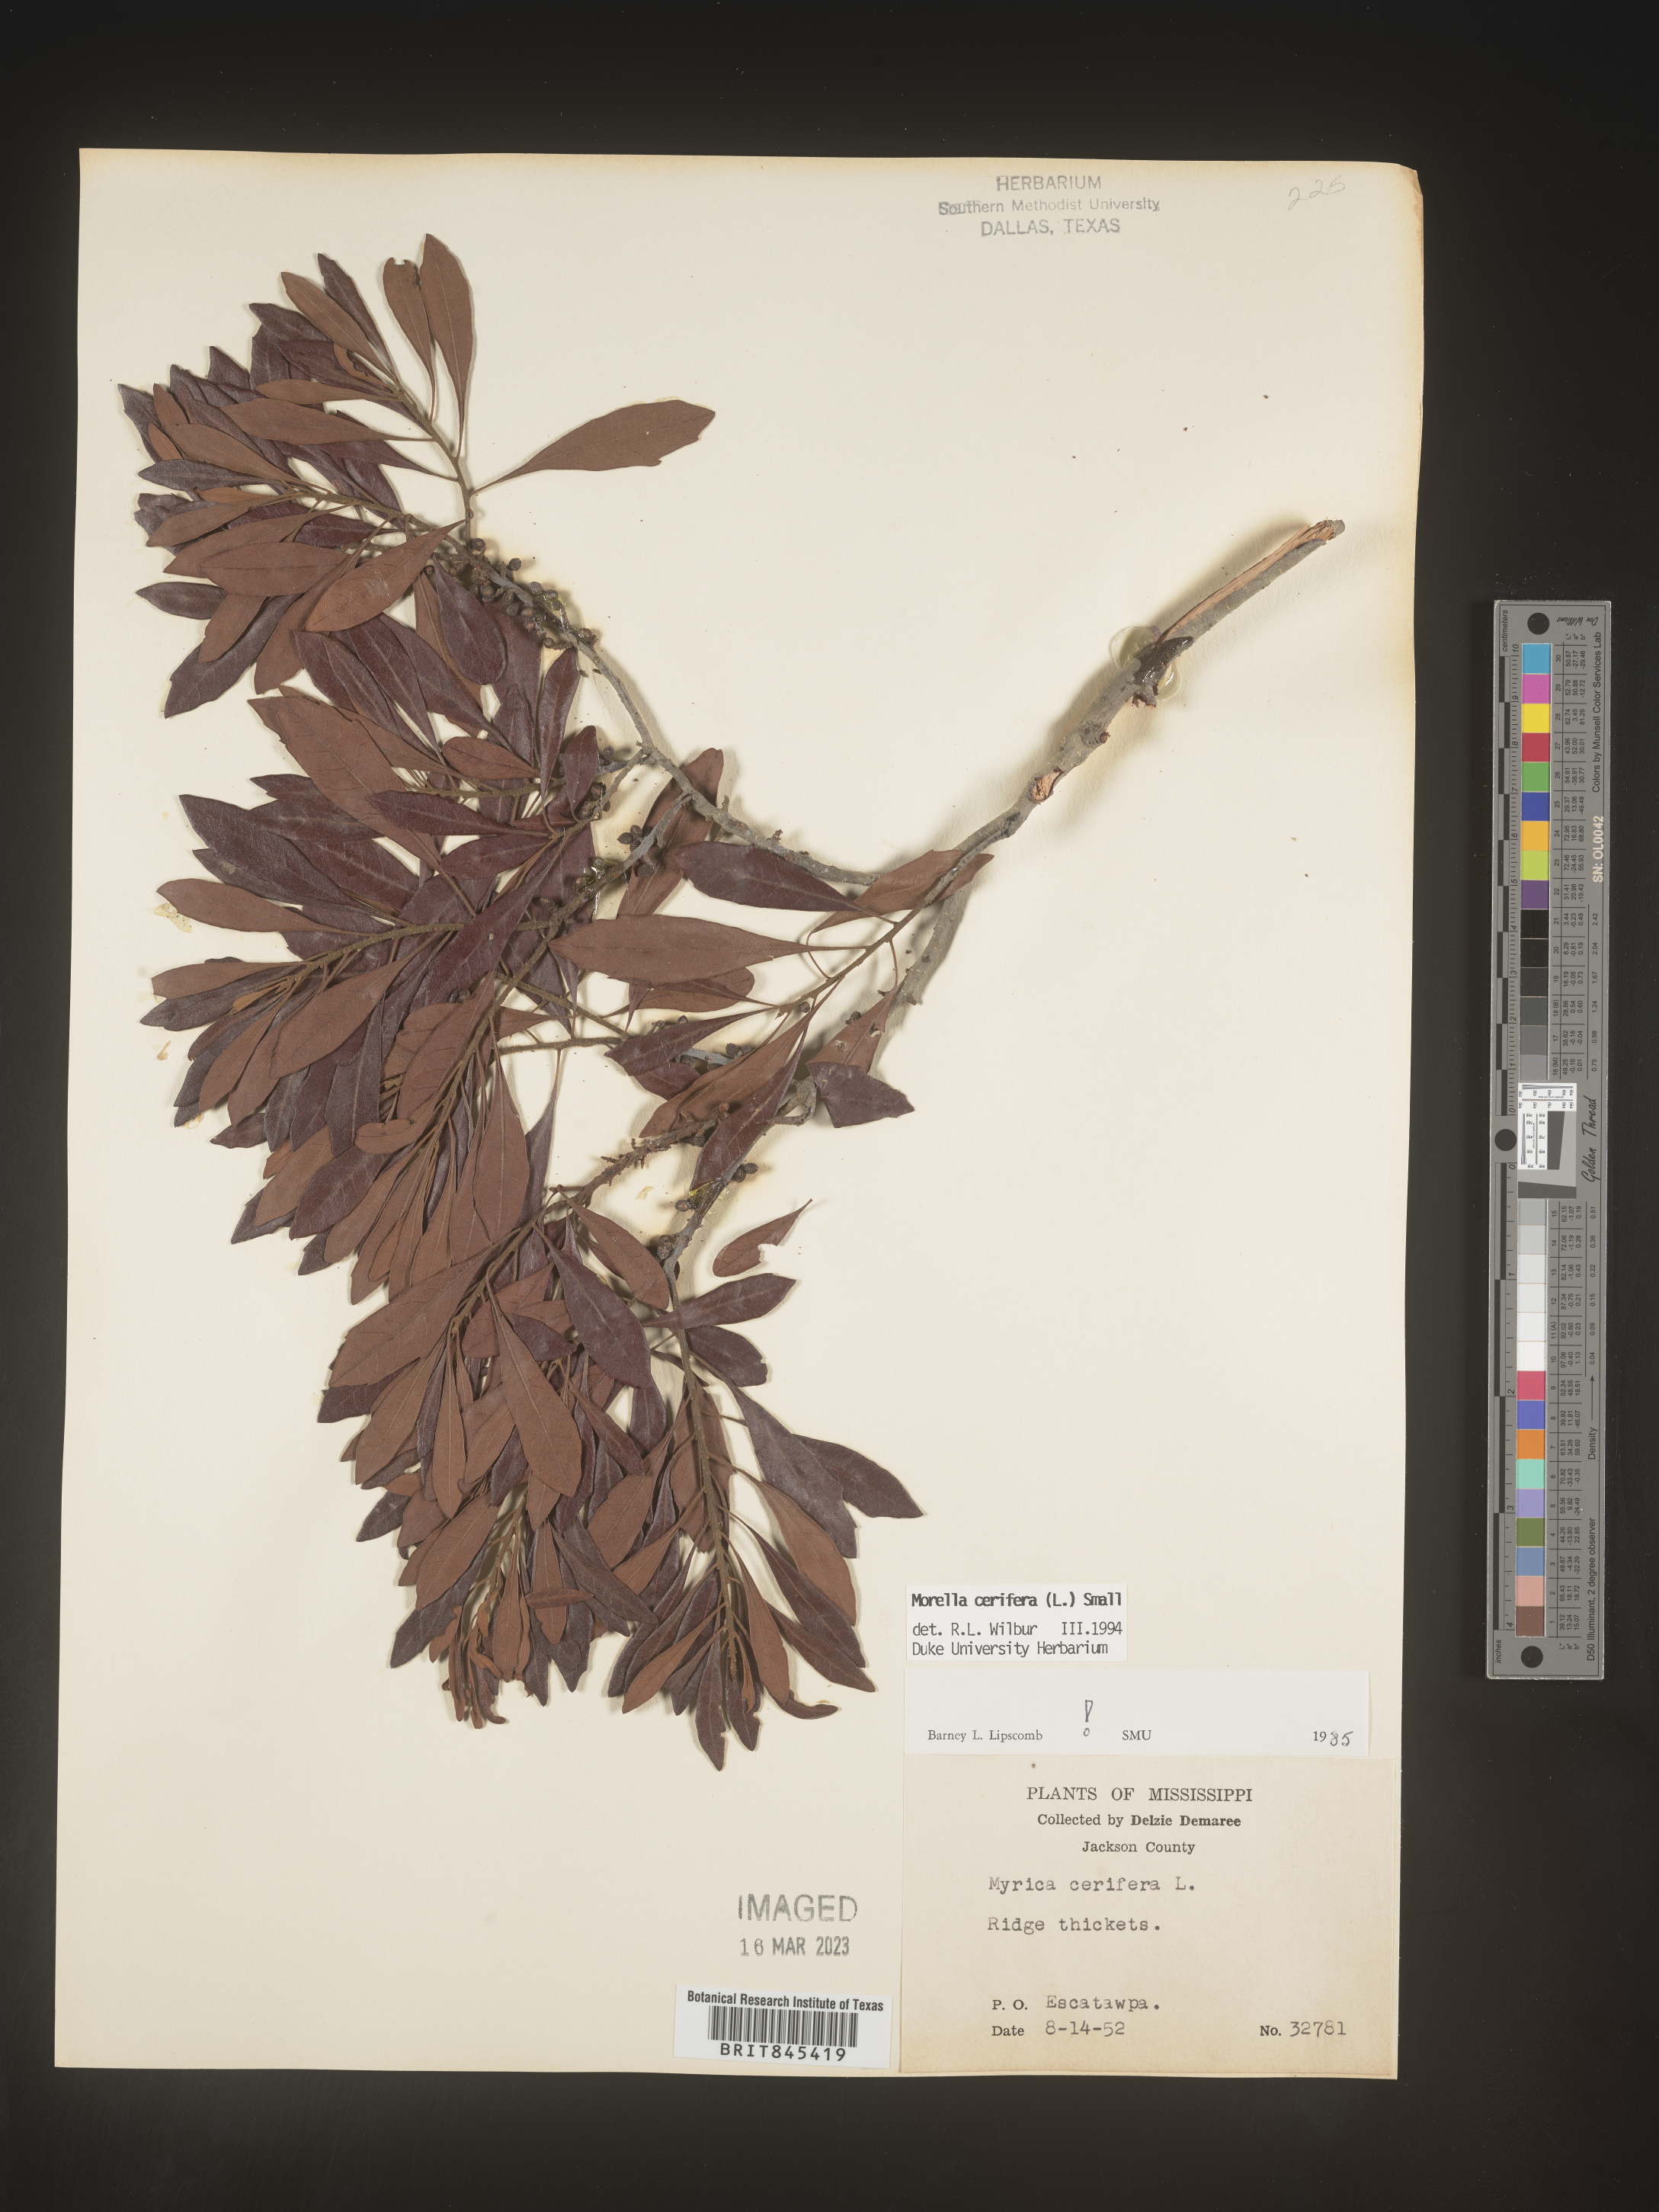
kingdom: Plantae
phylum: Tracheophyta
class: Magnoliopsida
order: Fagales
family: Myricaceae
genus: Morella
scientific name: Morella cerifera
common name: Wax myrtle
